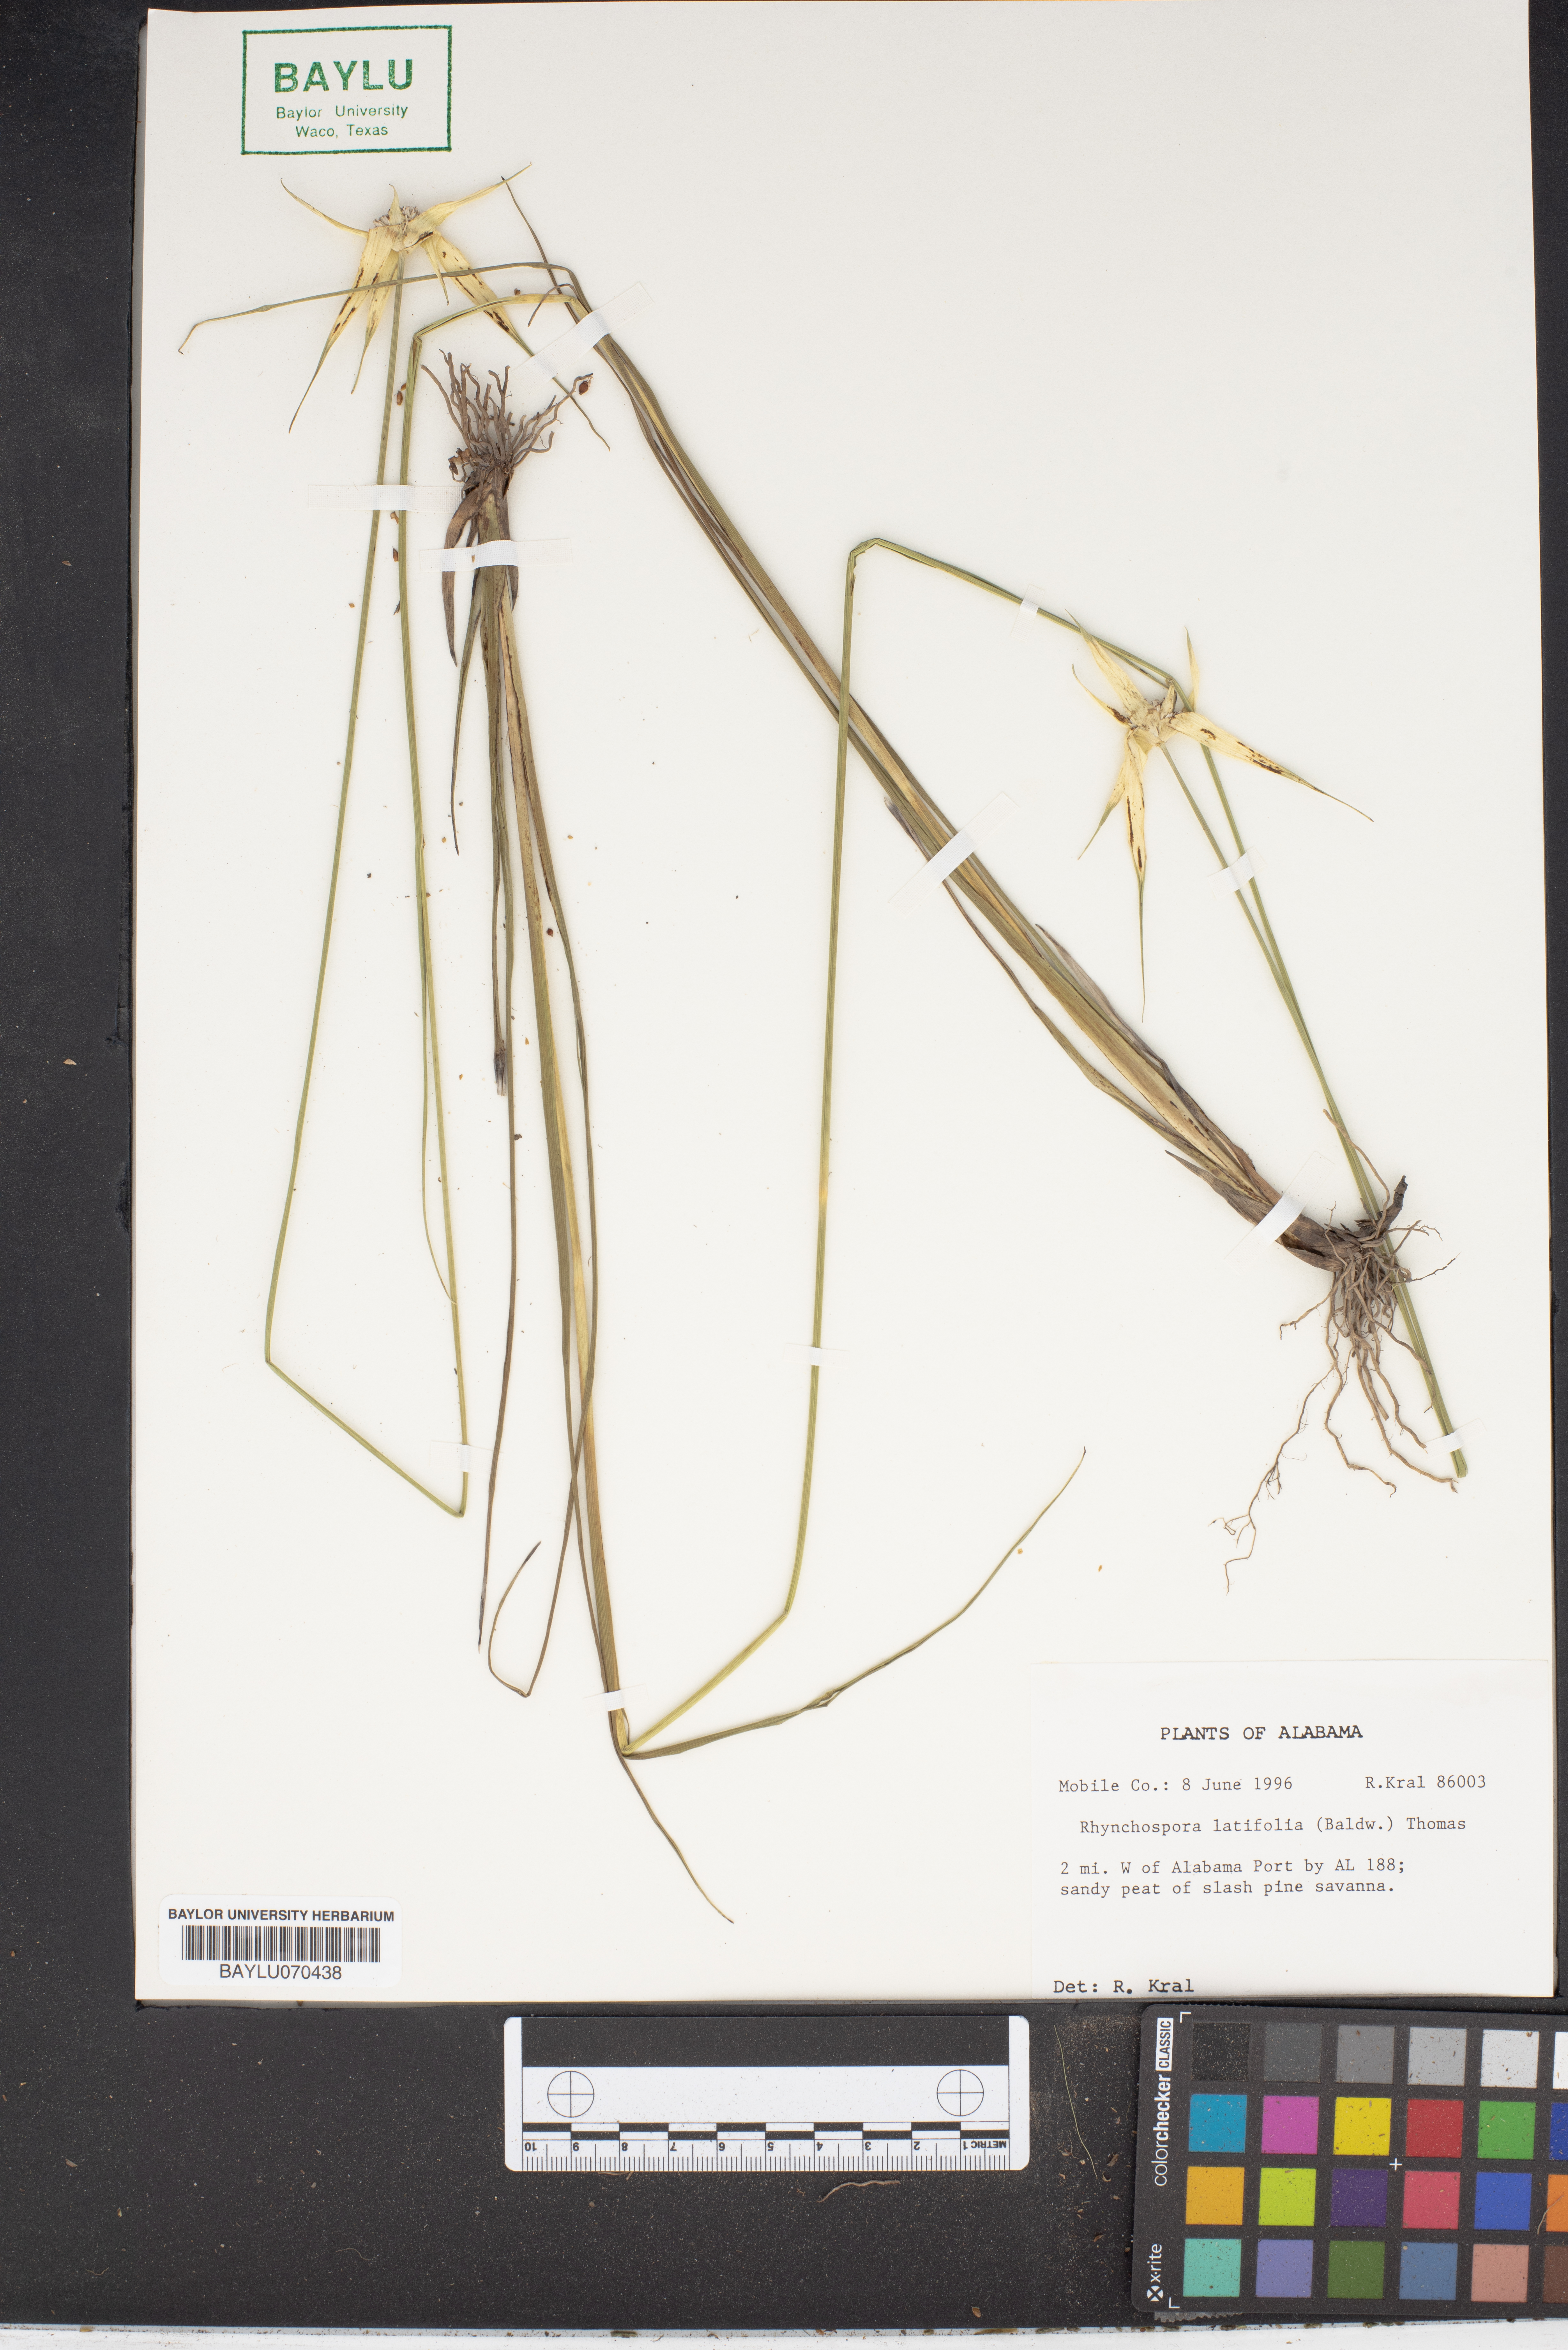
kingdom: Plantae
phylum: Tracheophyta
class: Liliopsida
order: Poales
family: Cyperaceae
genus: Rhynchospora
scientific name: Rhynchospora latifolia
